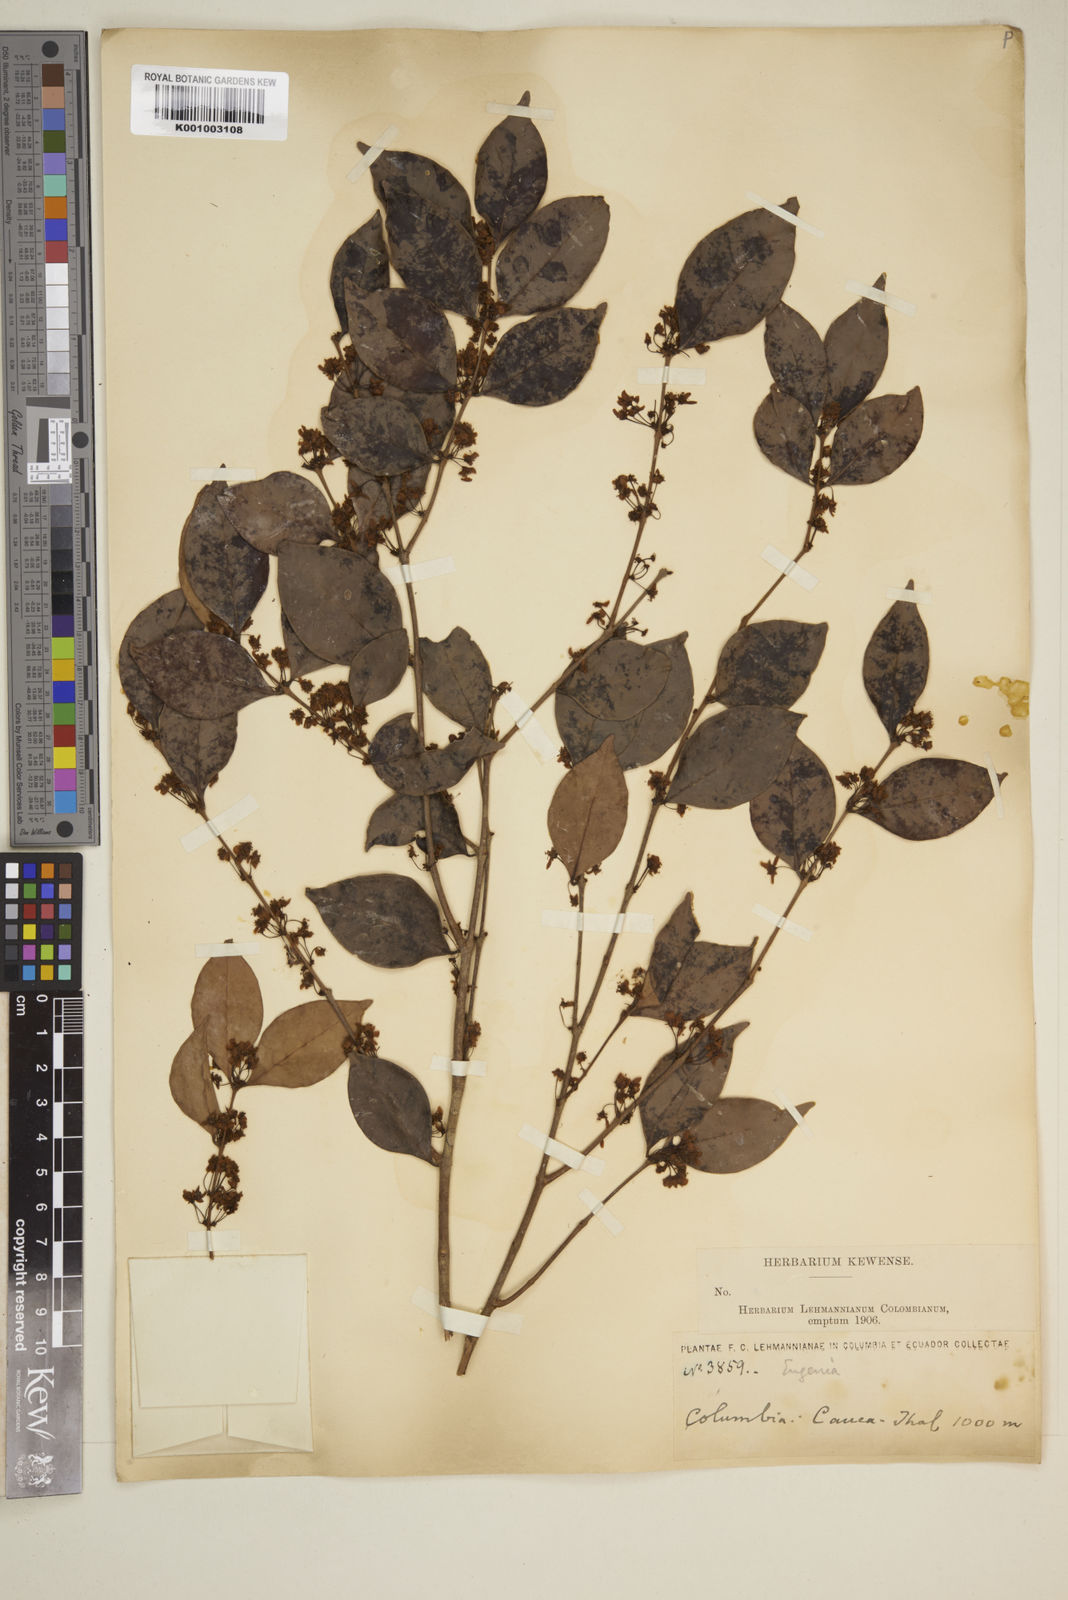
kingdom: Plantae
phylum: Tracheophyta
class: Magnoliopsida
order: Myrtales
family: Myrtaceae
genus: Eugenia
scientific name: Eugenia
